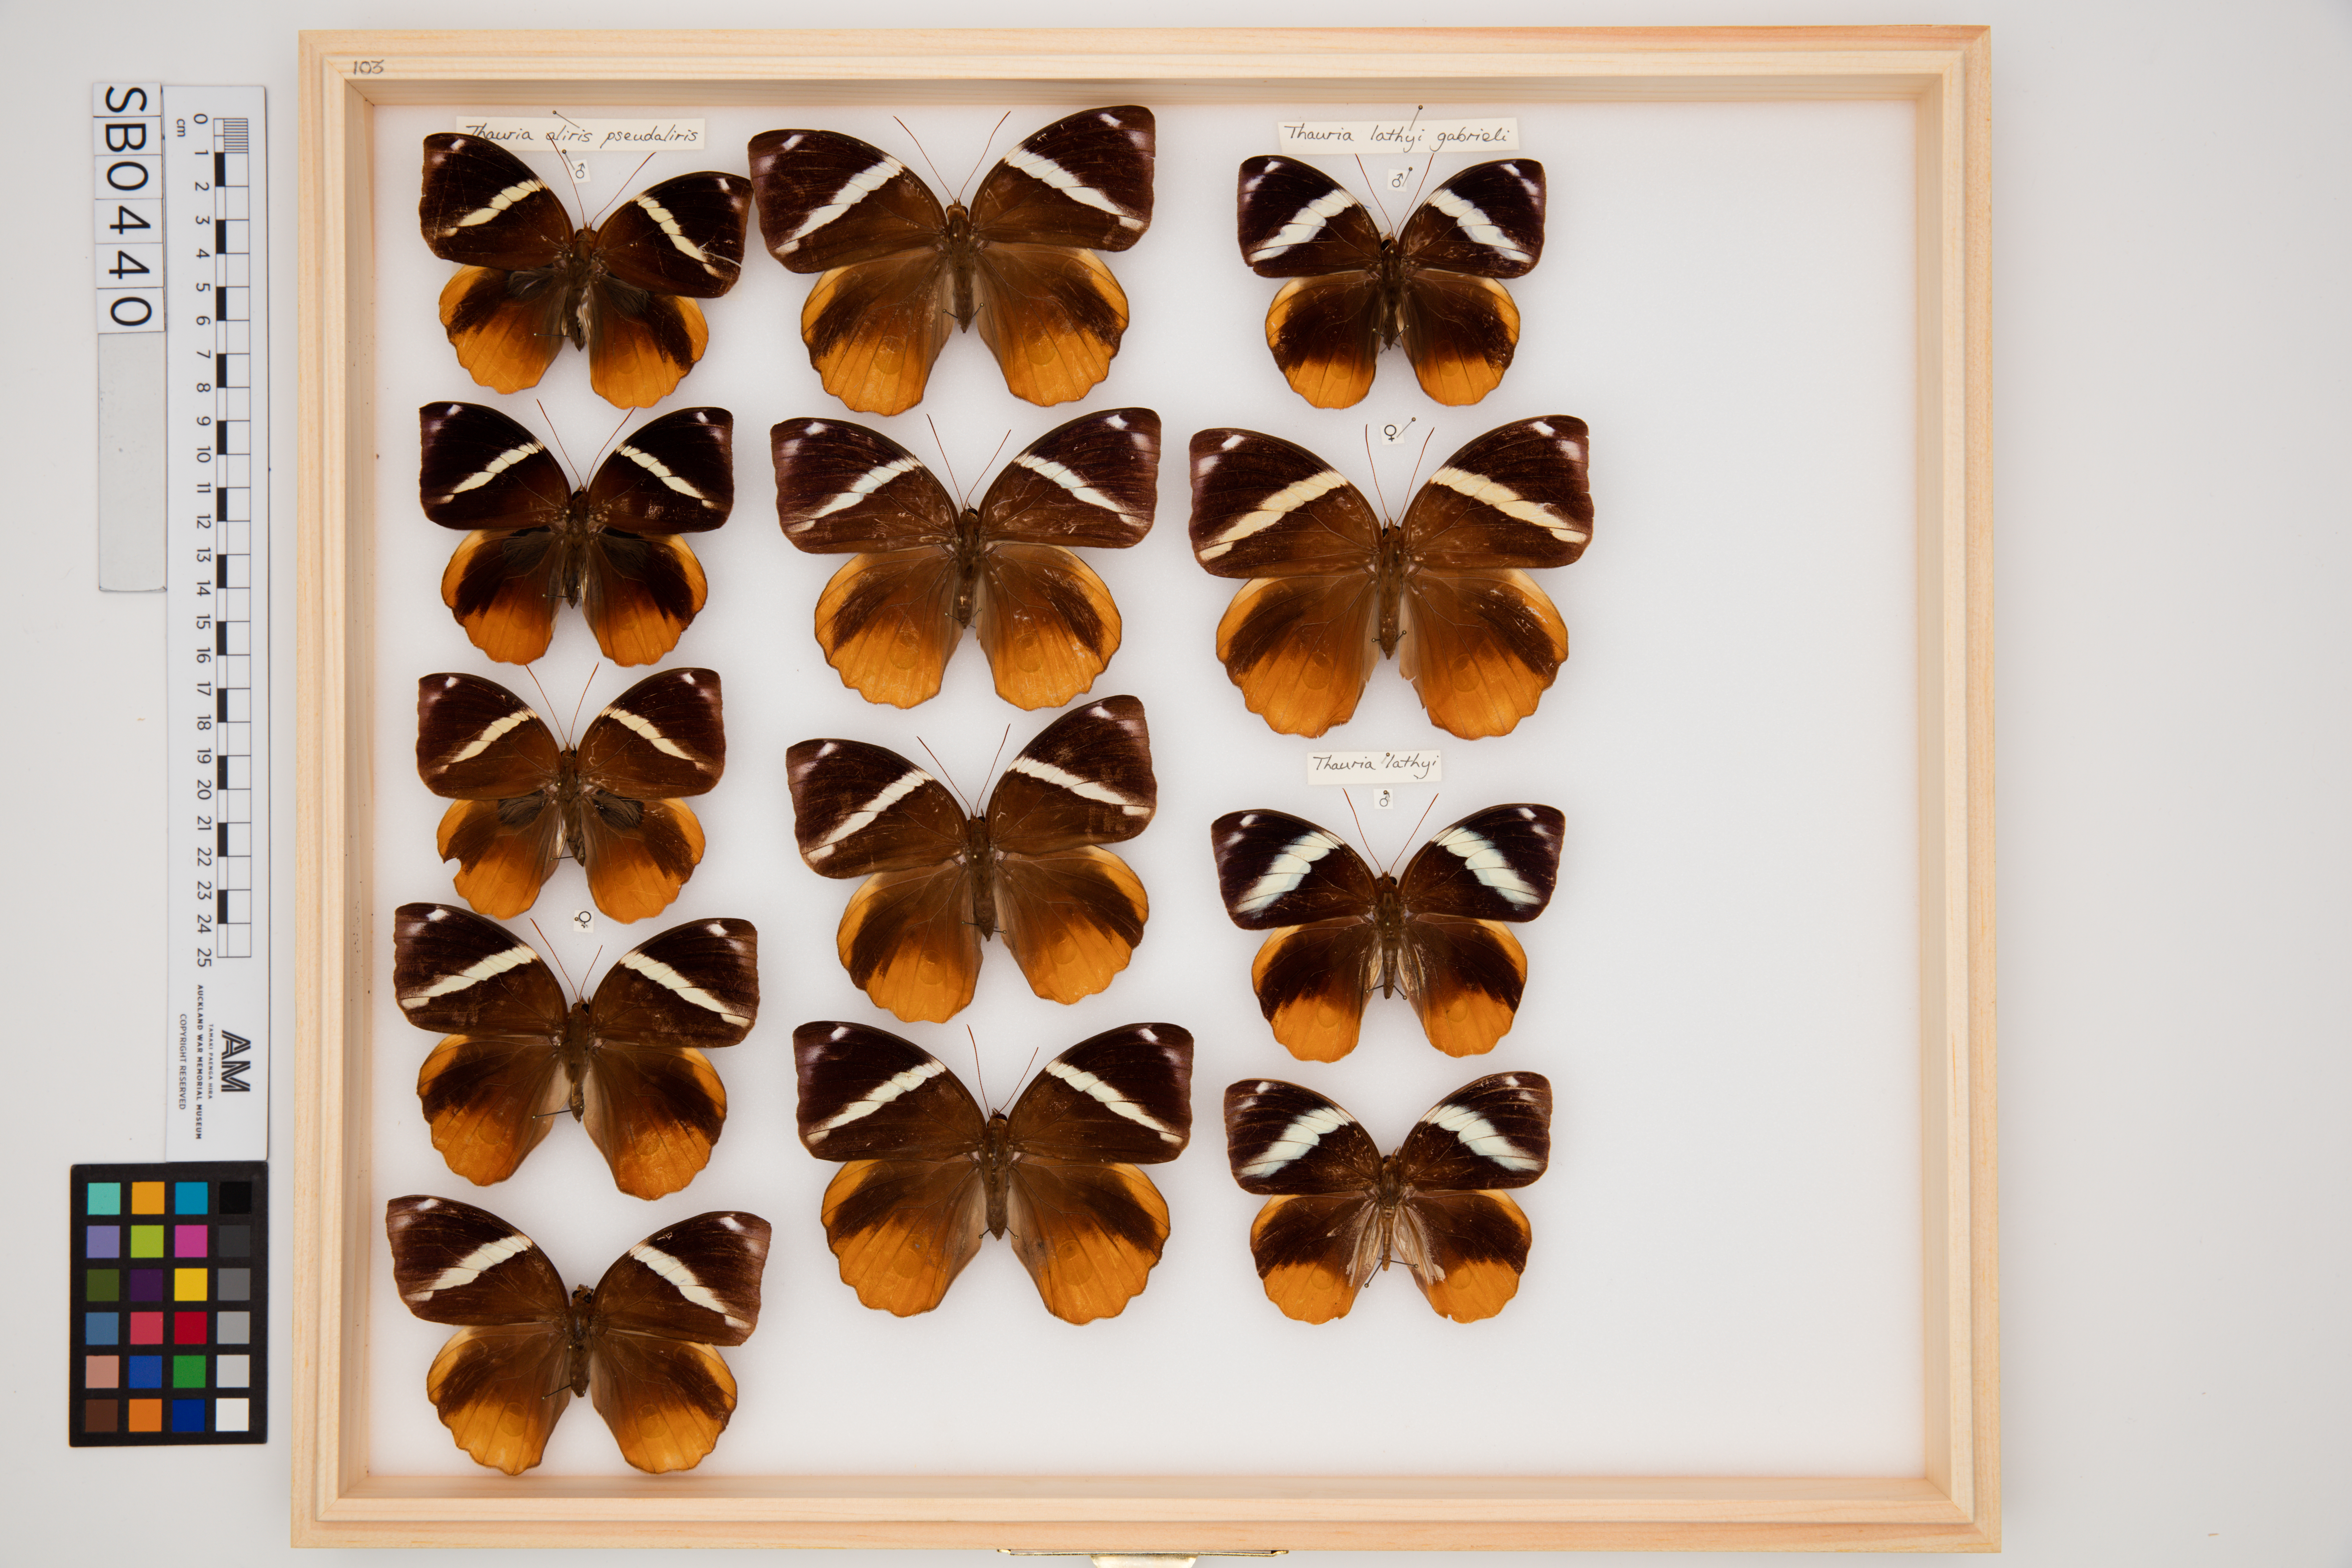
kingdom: Animalia
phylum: Arthropoda
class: Insecta
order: Lepidoptera
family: Nymphalidae
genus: Thauria
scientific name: Thauria aliris
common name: Tufted jungle king
